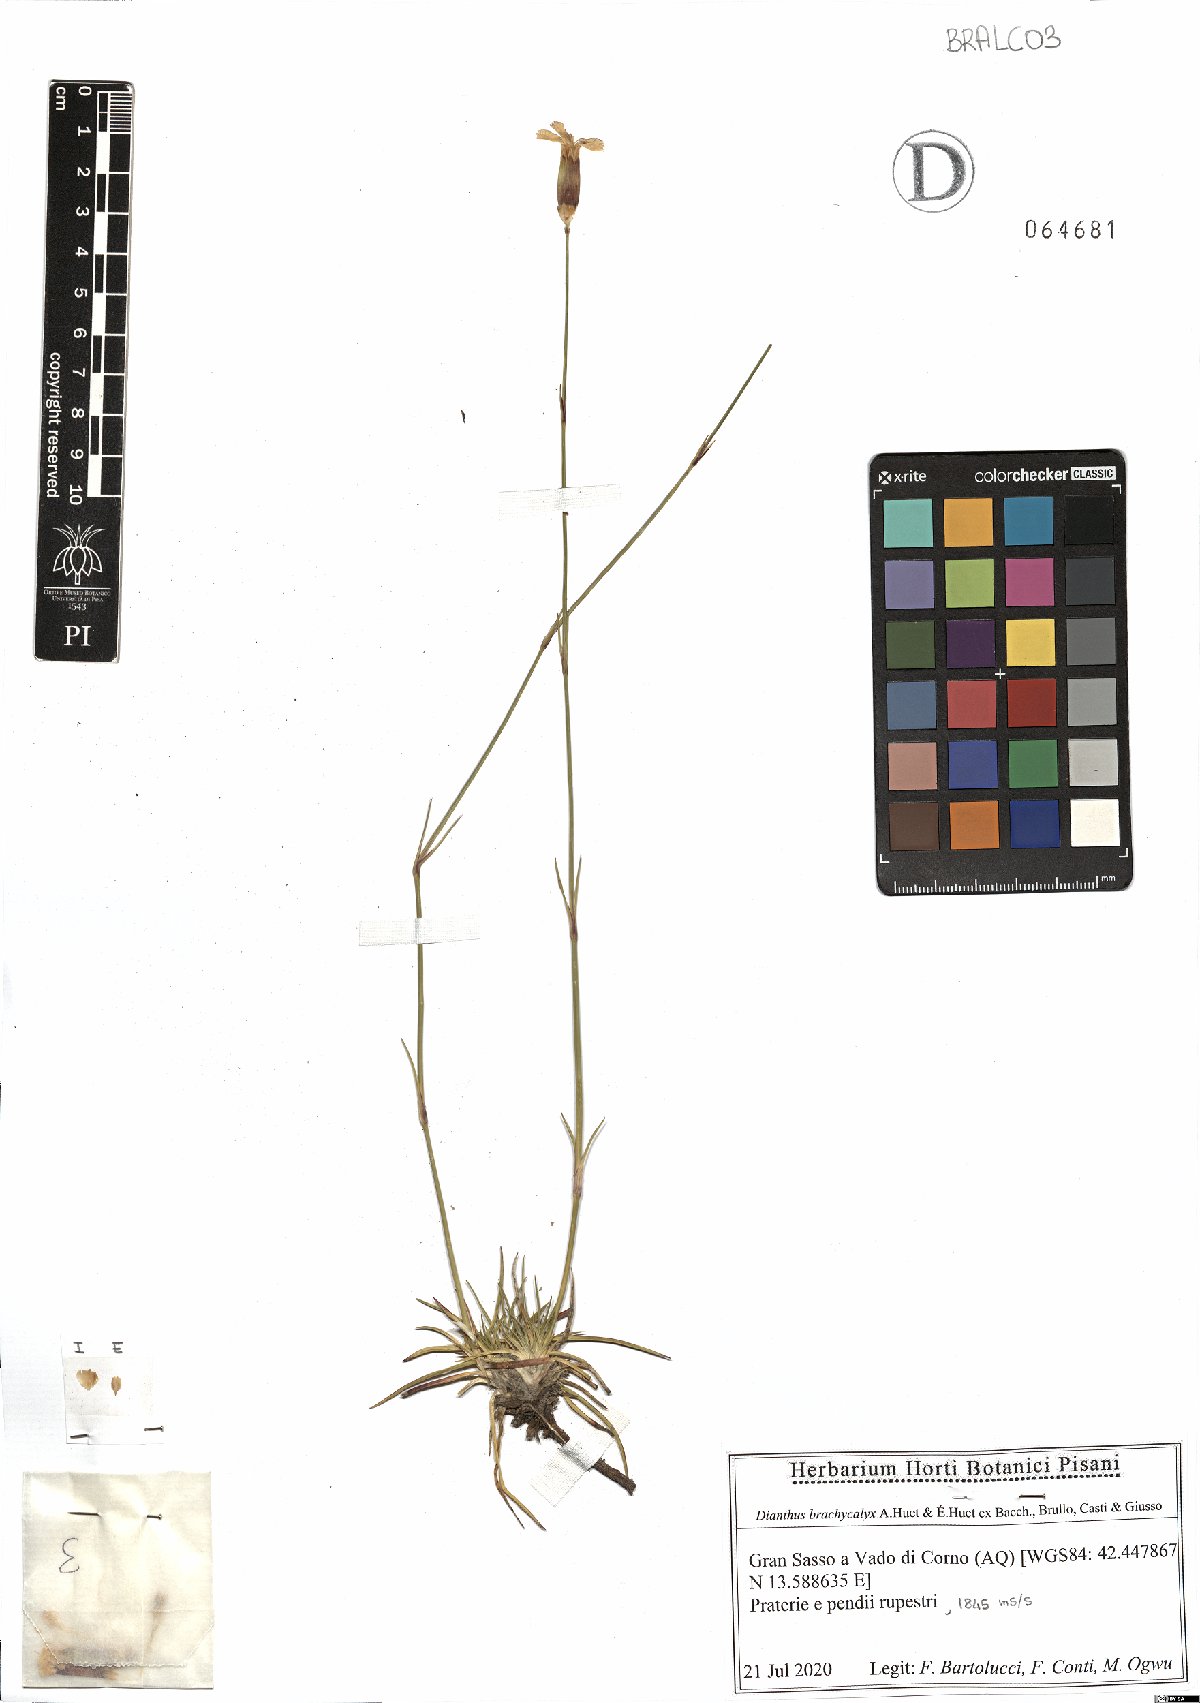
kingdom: Plantae
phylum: Tracheophyta
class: Magnoliopsida
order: Caryophyllales
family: Caryophyllaceae
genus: Dianthus
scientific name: Dianthus brachycalyx
